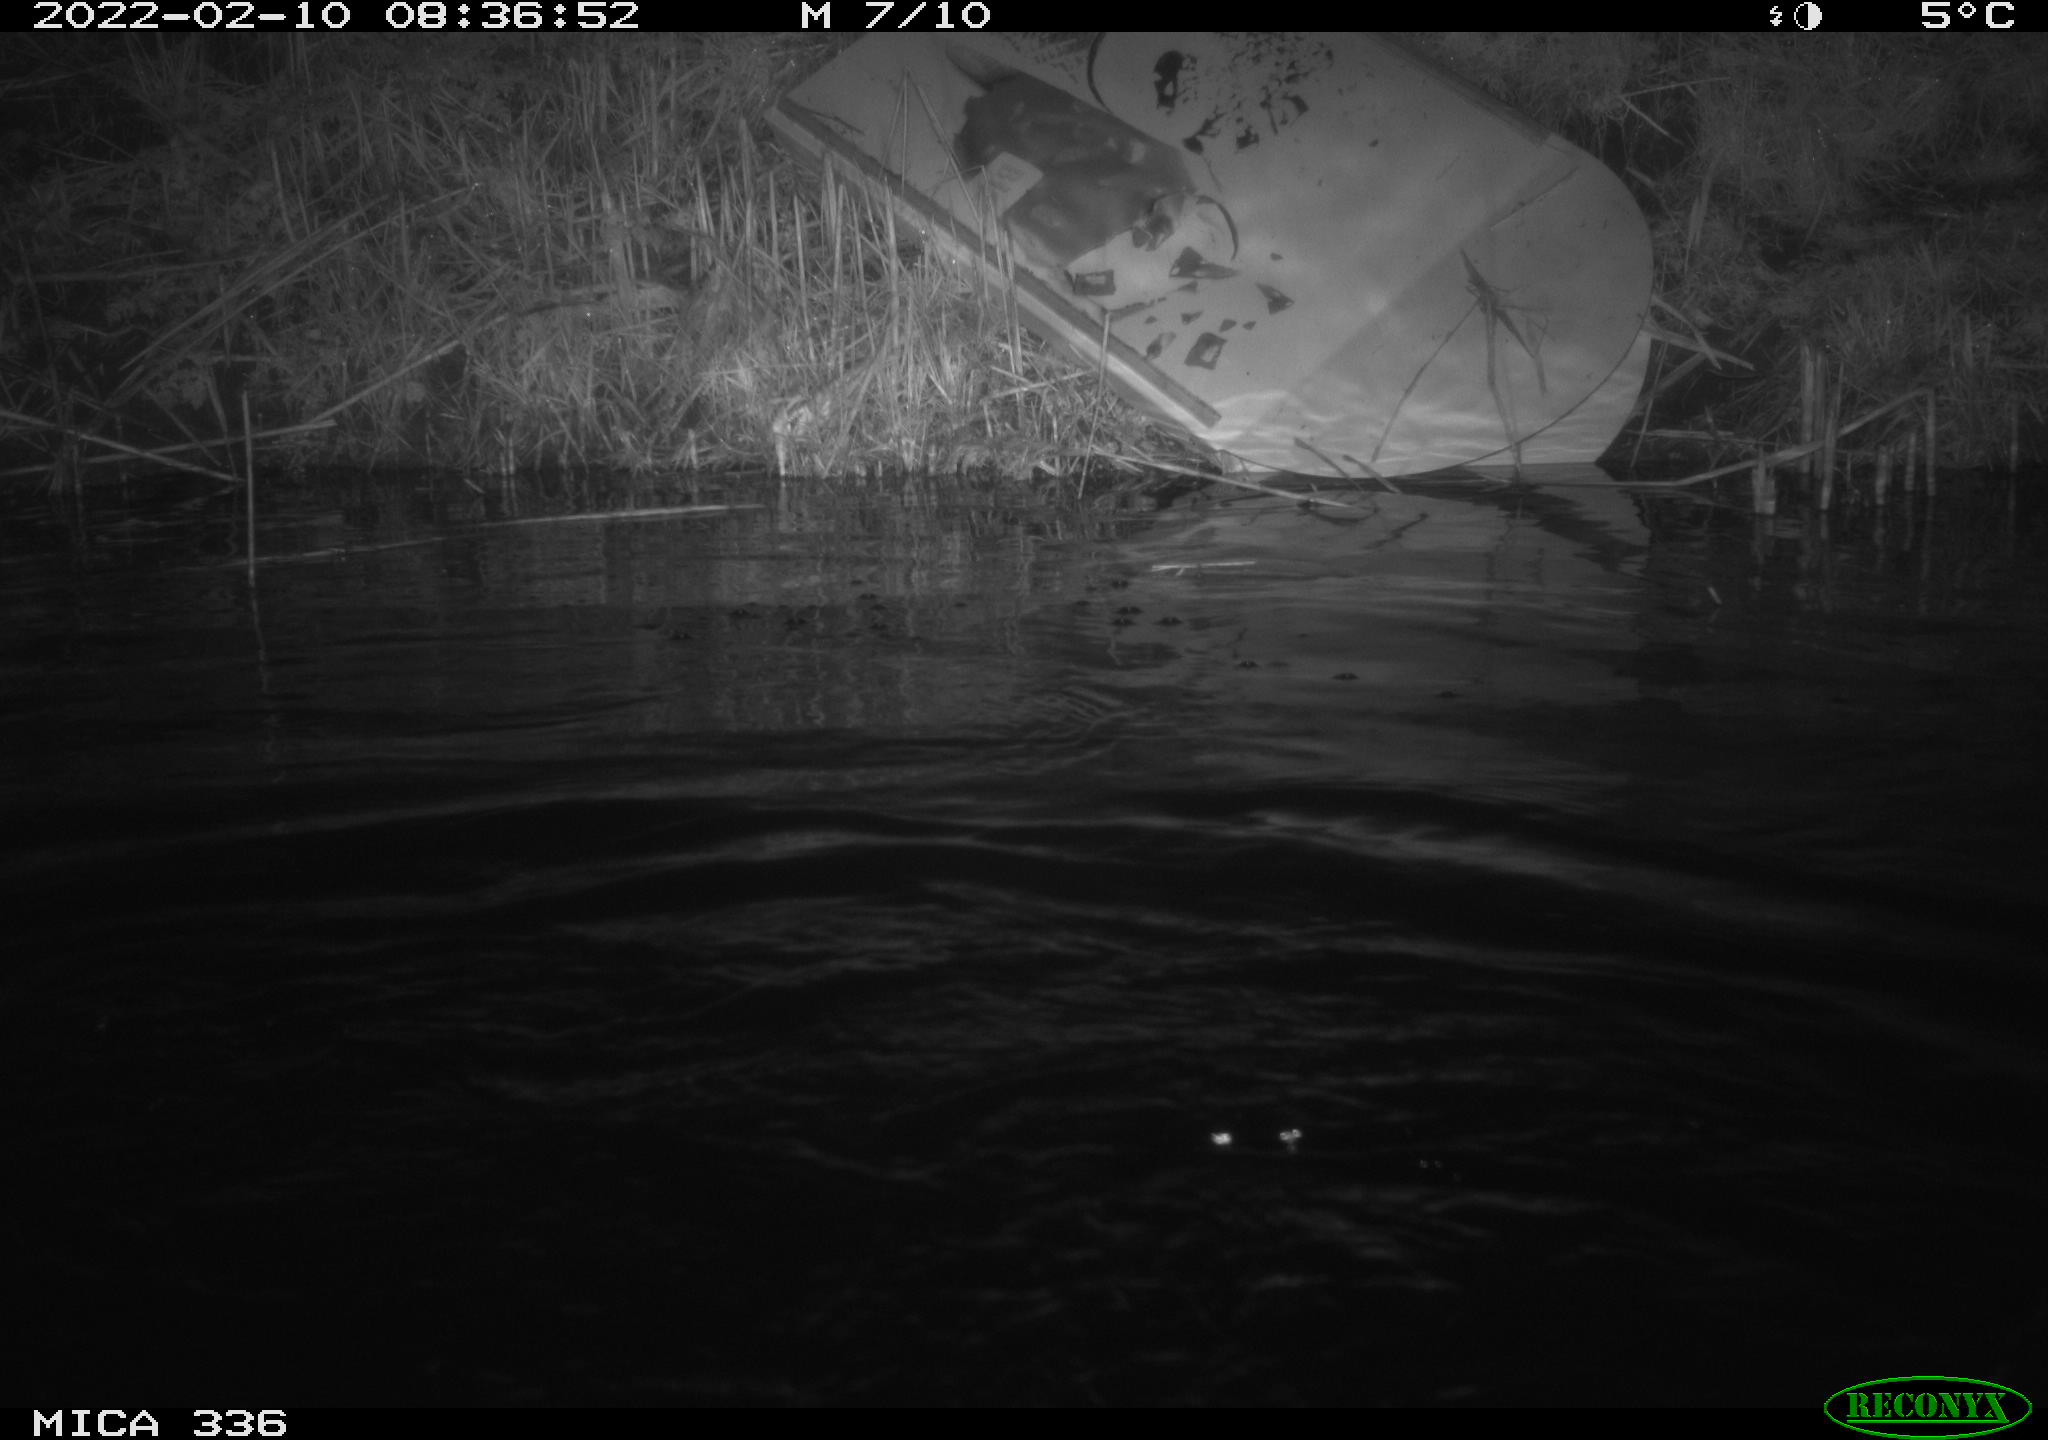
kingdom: Animalia
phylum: Chordata
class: Aves
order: Suliformes
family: Phalacrocoracidae
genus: Phalacrocorax
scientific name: Phalacrocorax carbo
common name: Great cormorant
